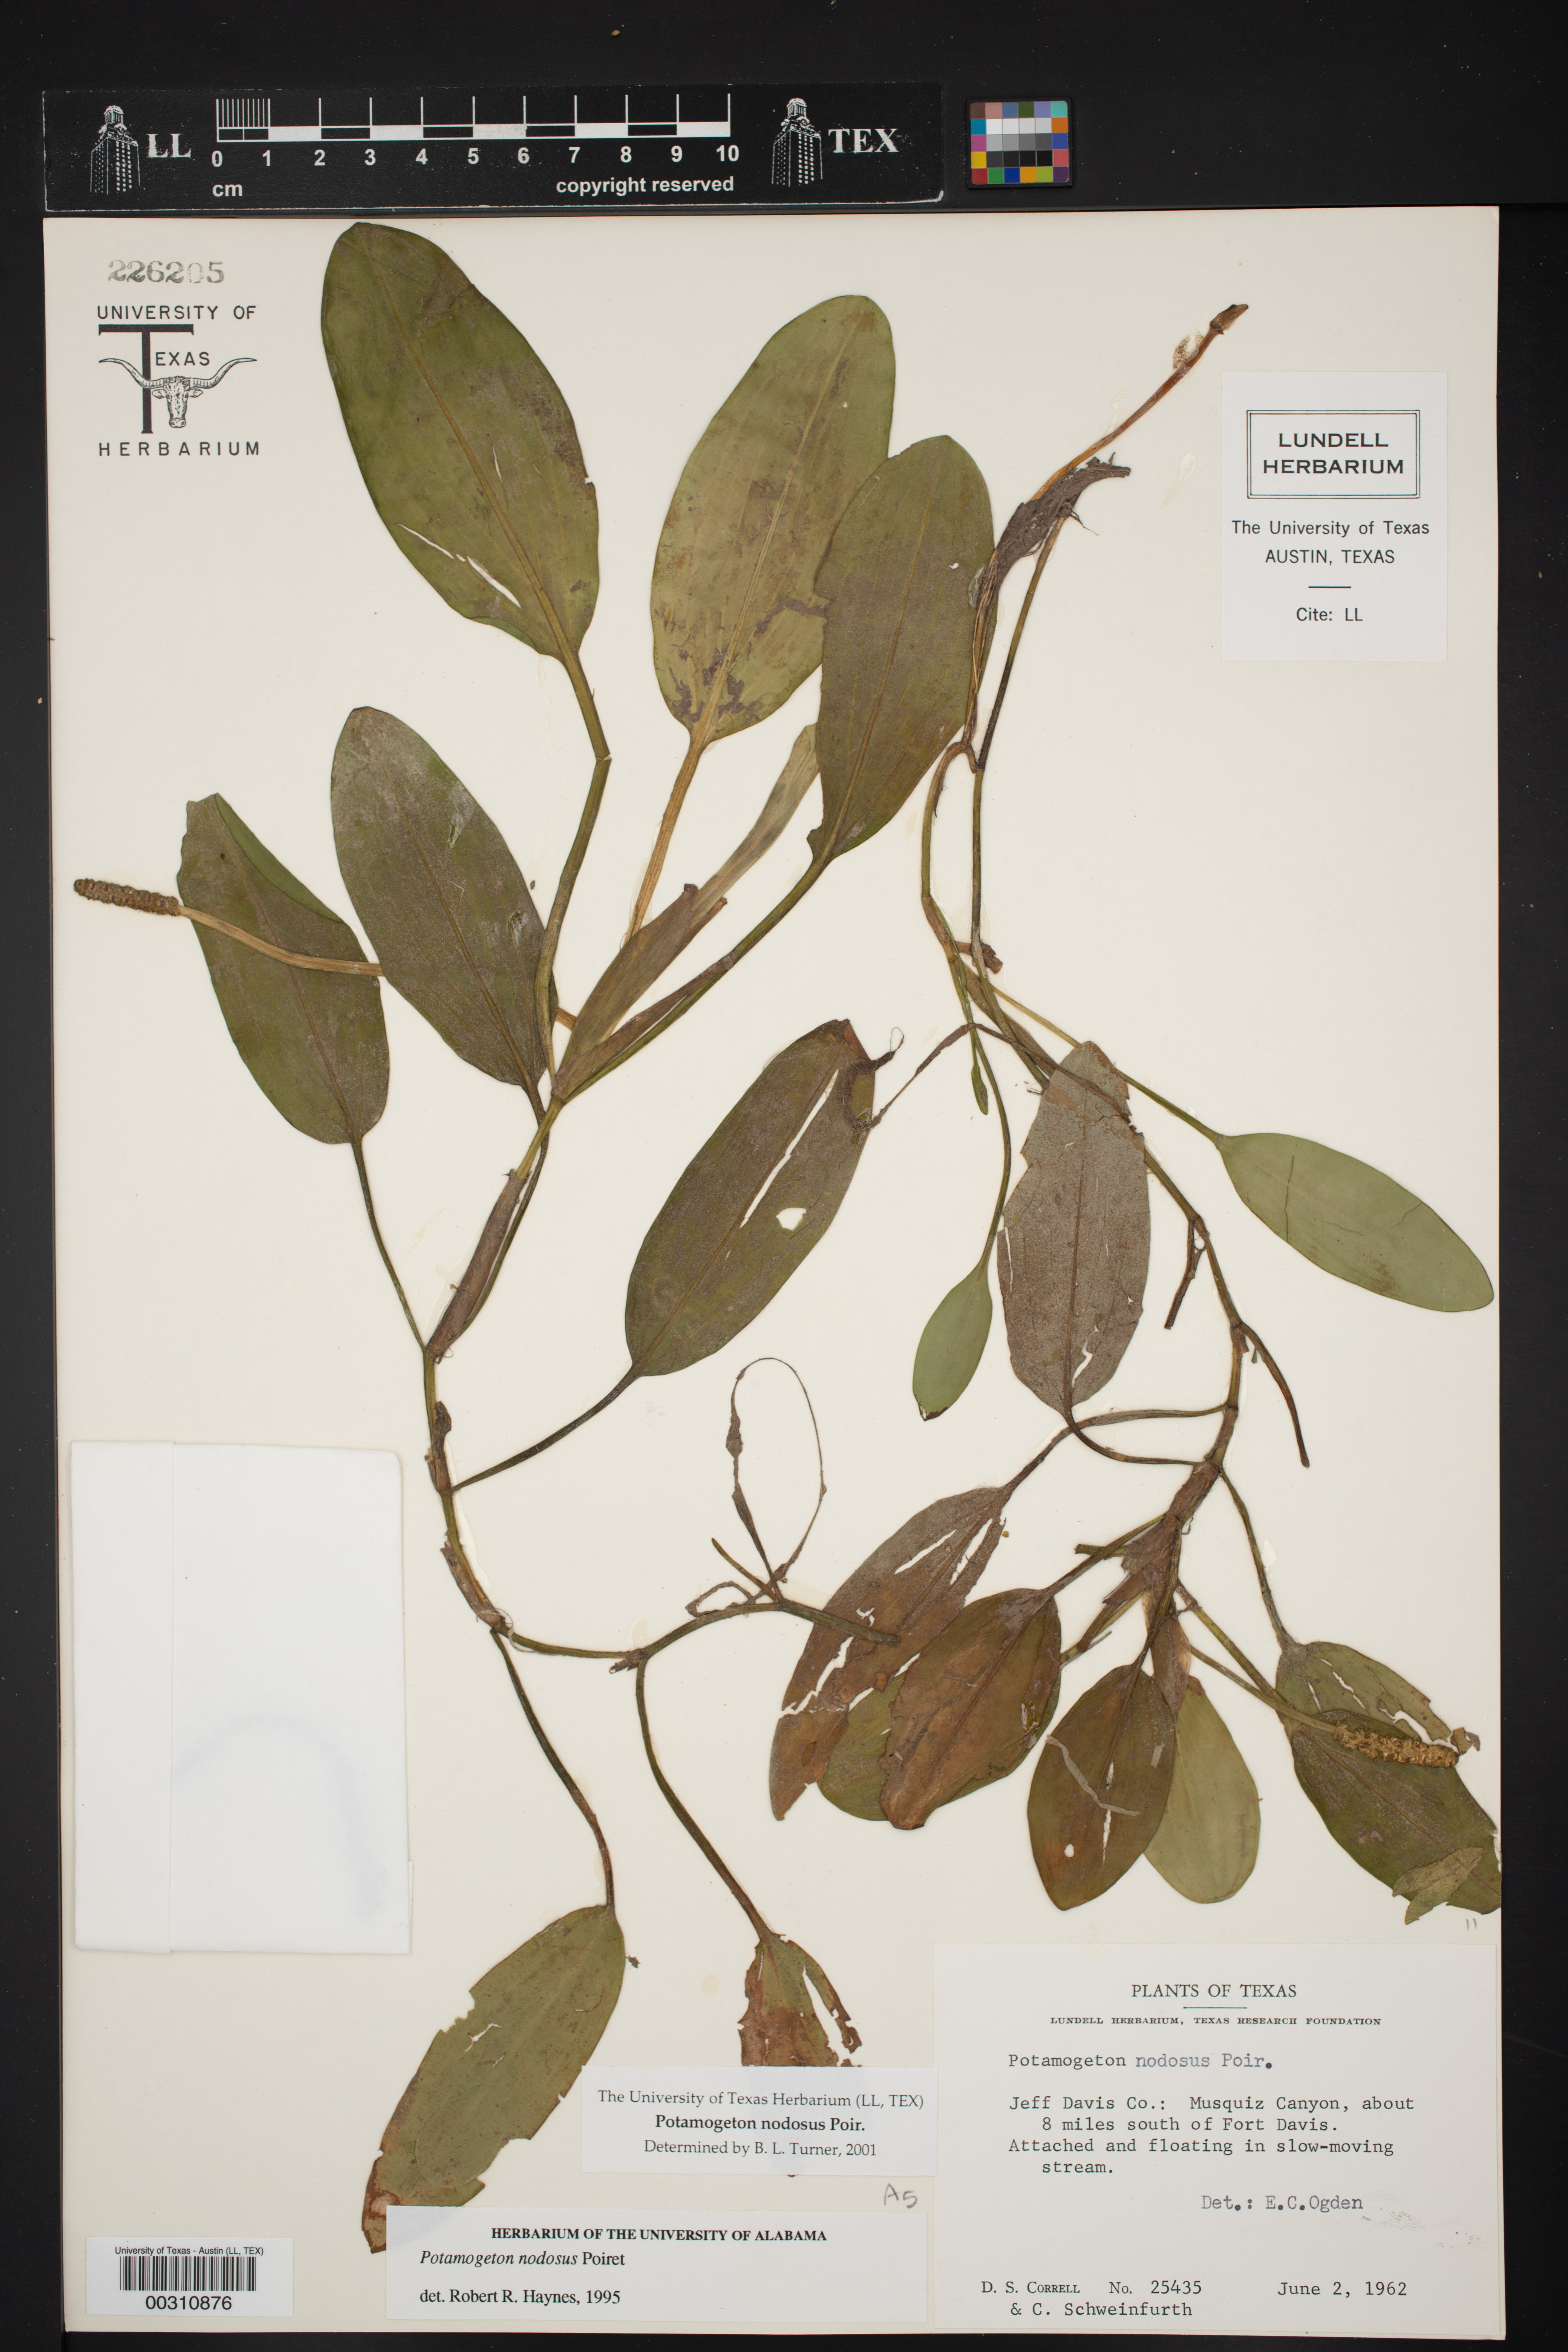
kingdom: Plantae
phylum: Tracheophyta
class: Liliopsida
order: Alismatales
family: Potamogetonaceae
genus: Potamogeton
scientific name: Potamogeton nodosus
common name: Loddon pondweed
